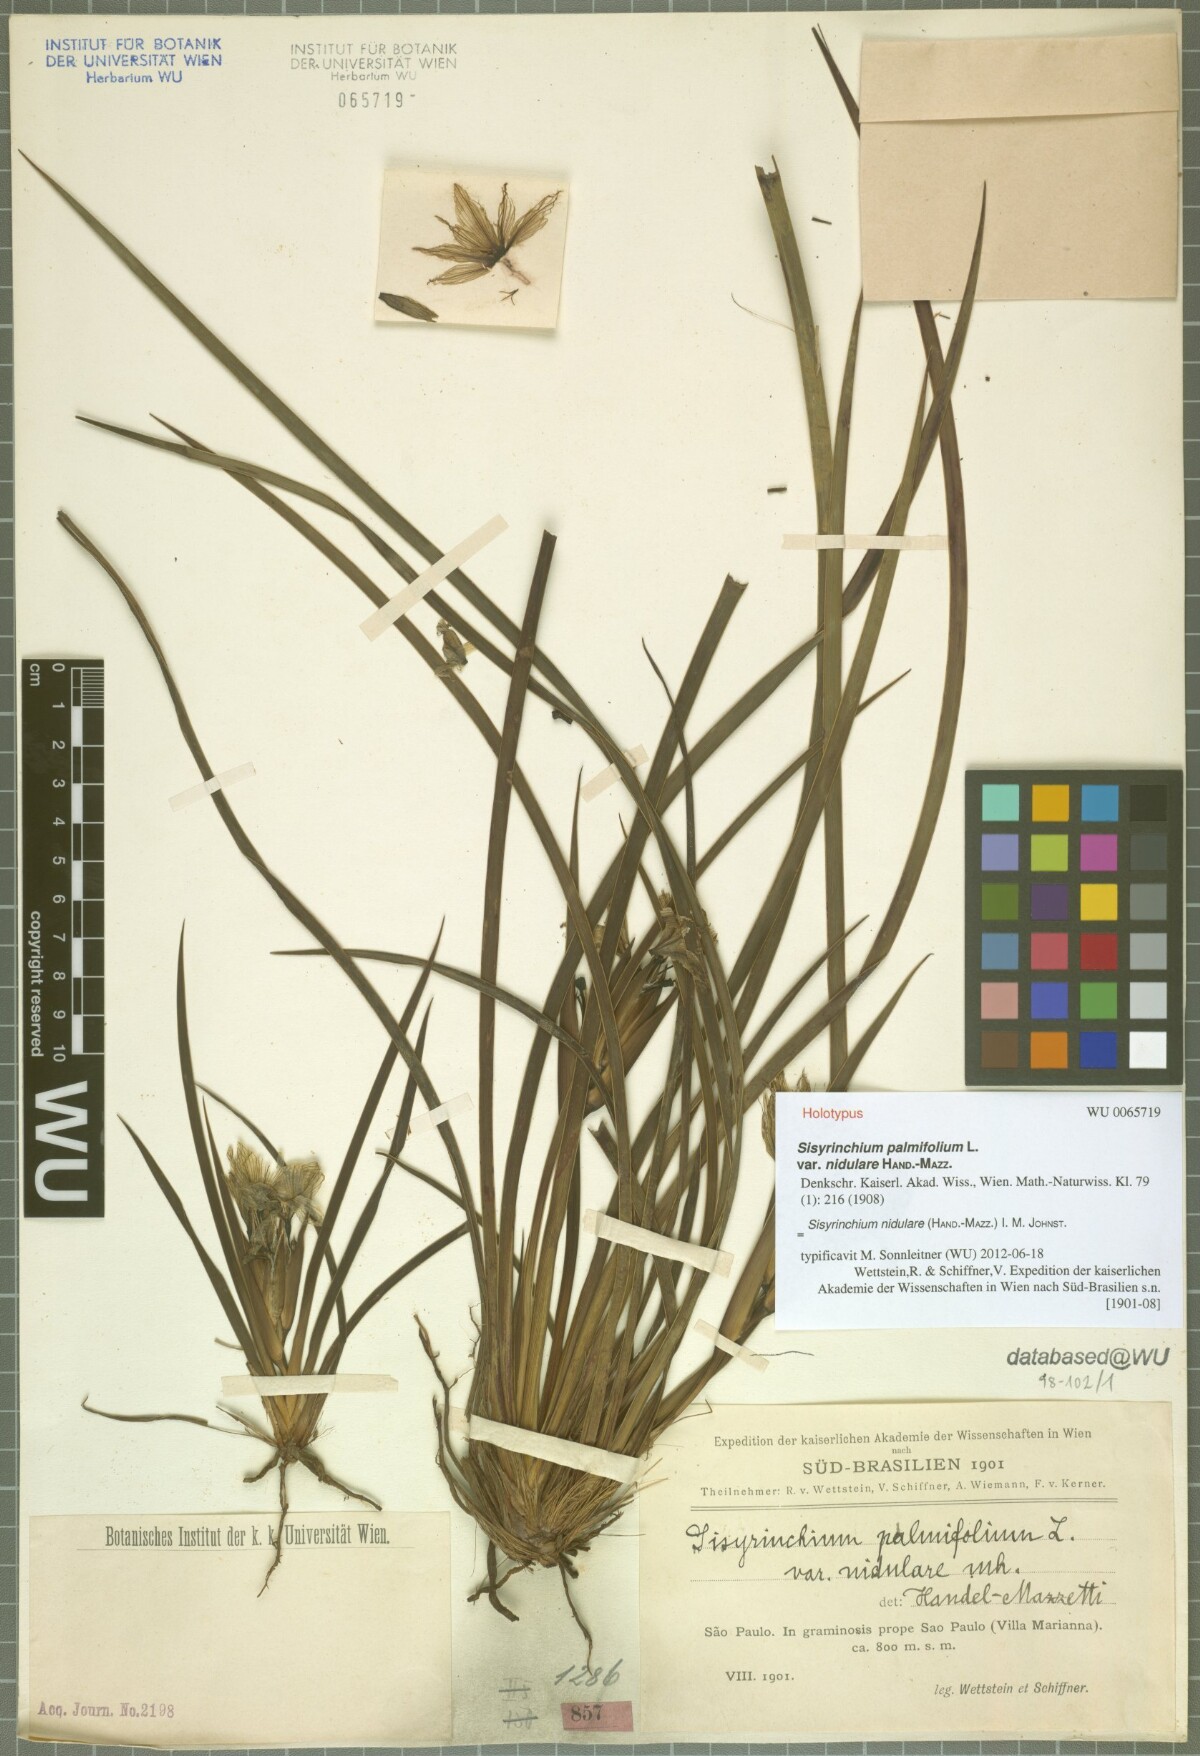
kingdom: Plantae
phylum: Tracheophyta
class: Liliopsida
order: Asparagales
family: Iridaceae
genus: Sisyrinchium
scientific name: Sisyrinchium nidulare
